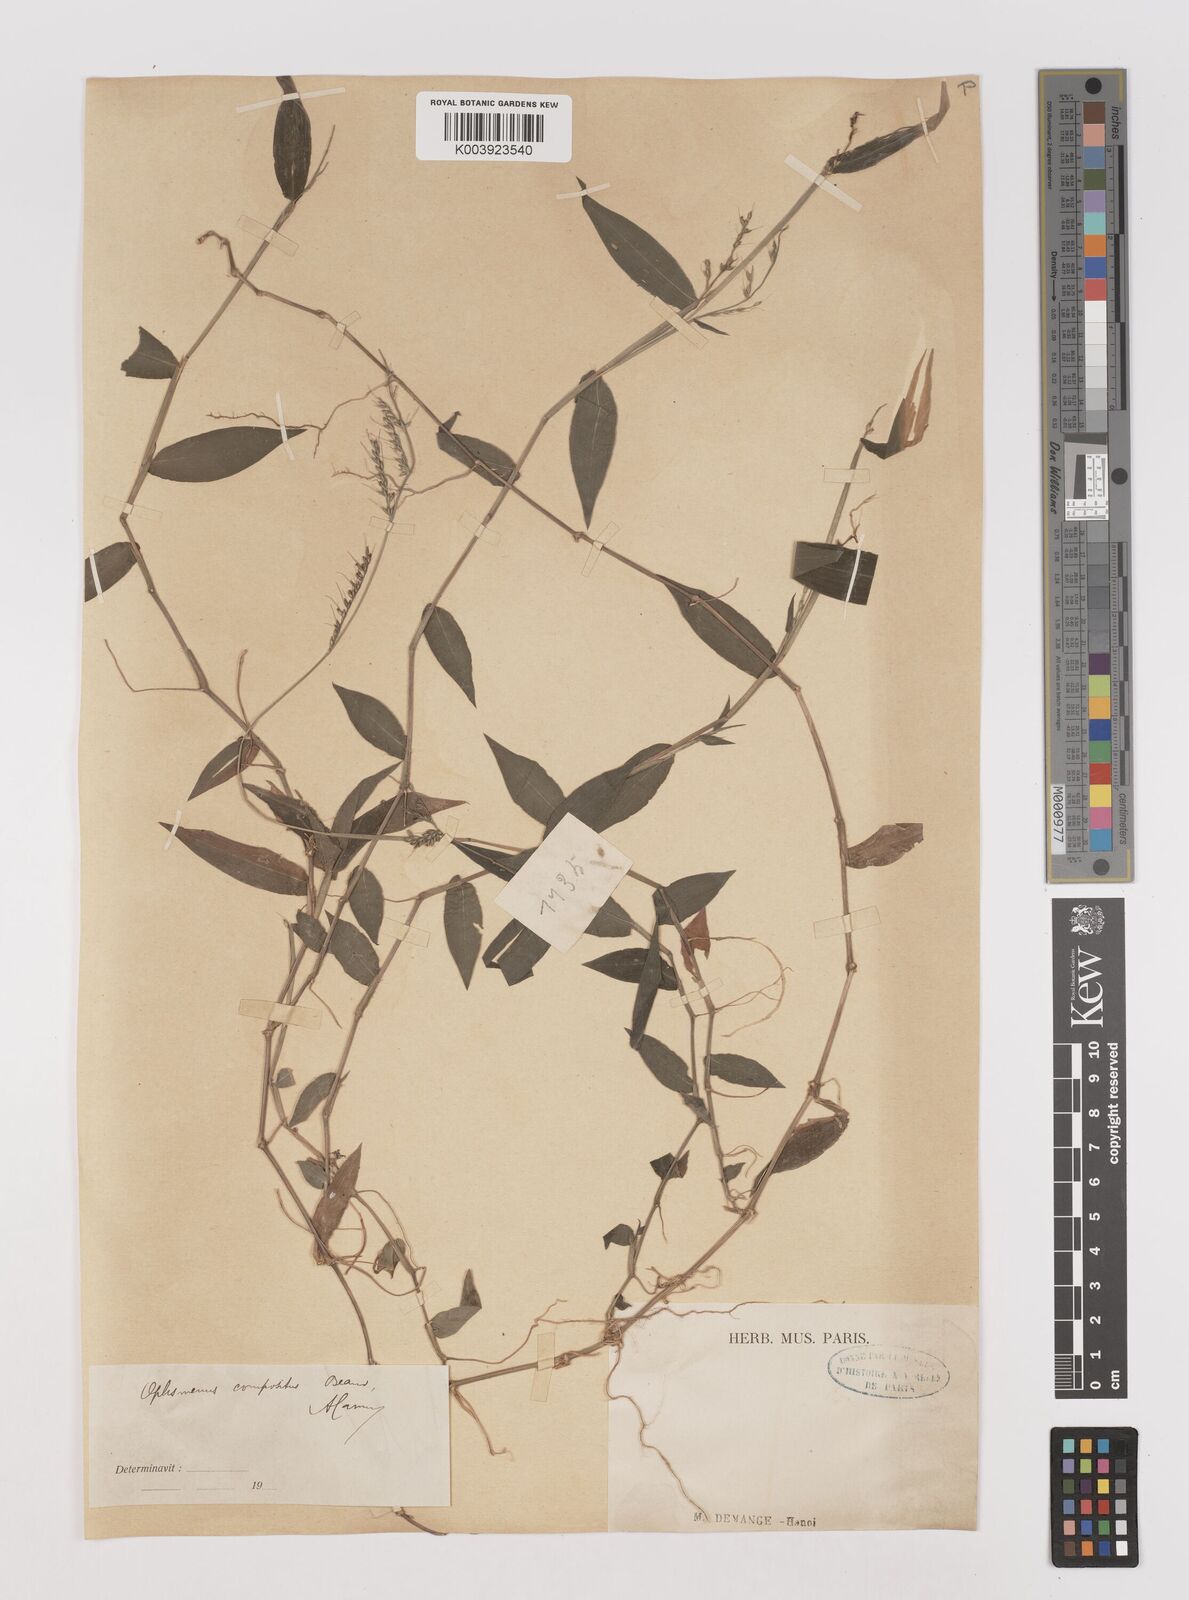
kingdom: Plantae
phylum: Tracheophyta
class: Liliopsida
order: Poales
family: Poaceae
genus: Oplismenus
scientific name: Oplismenus compositus
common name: Running mountain grass
